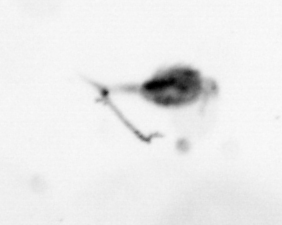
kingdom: Animalia
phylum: Arthropoda
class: Copepoda
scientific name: Copepoda
